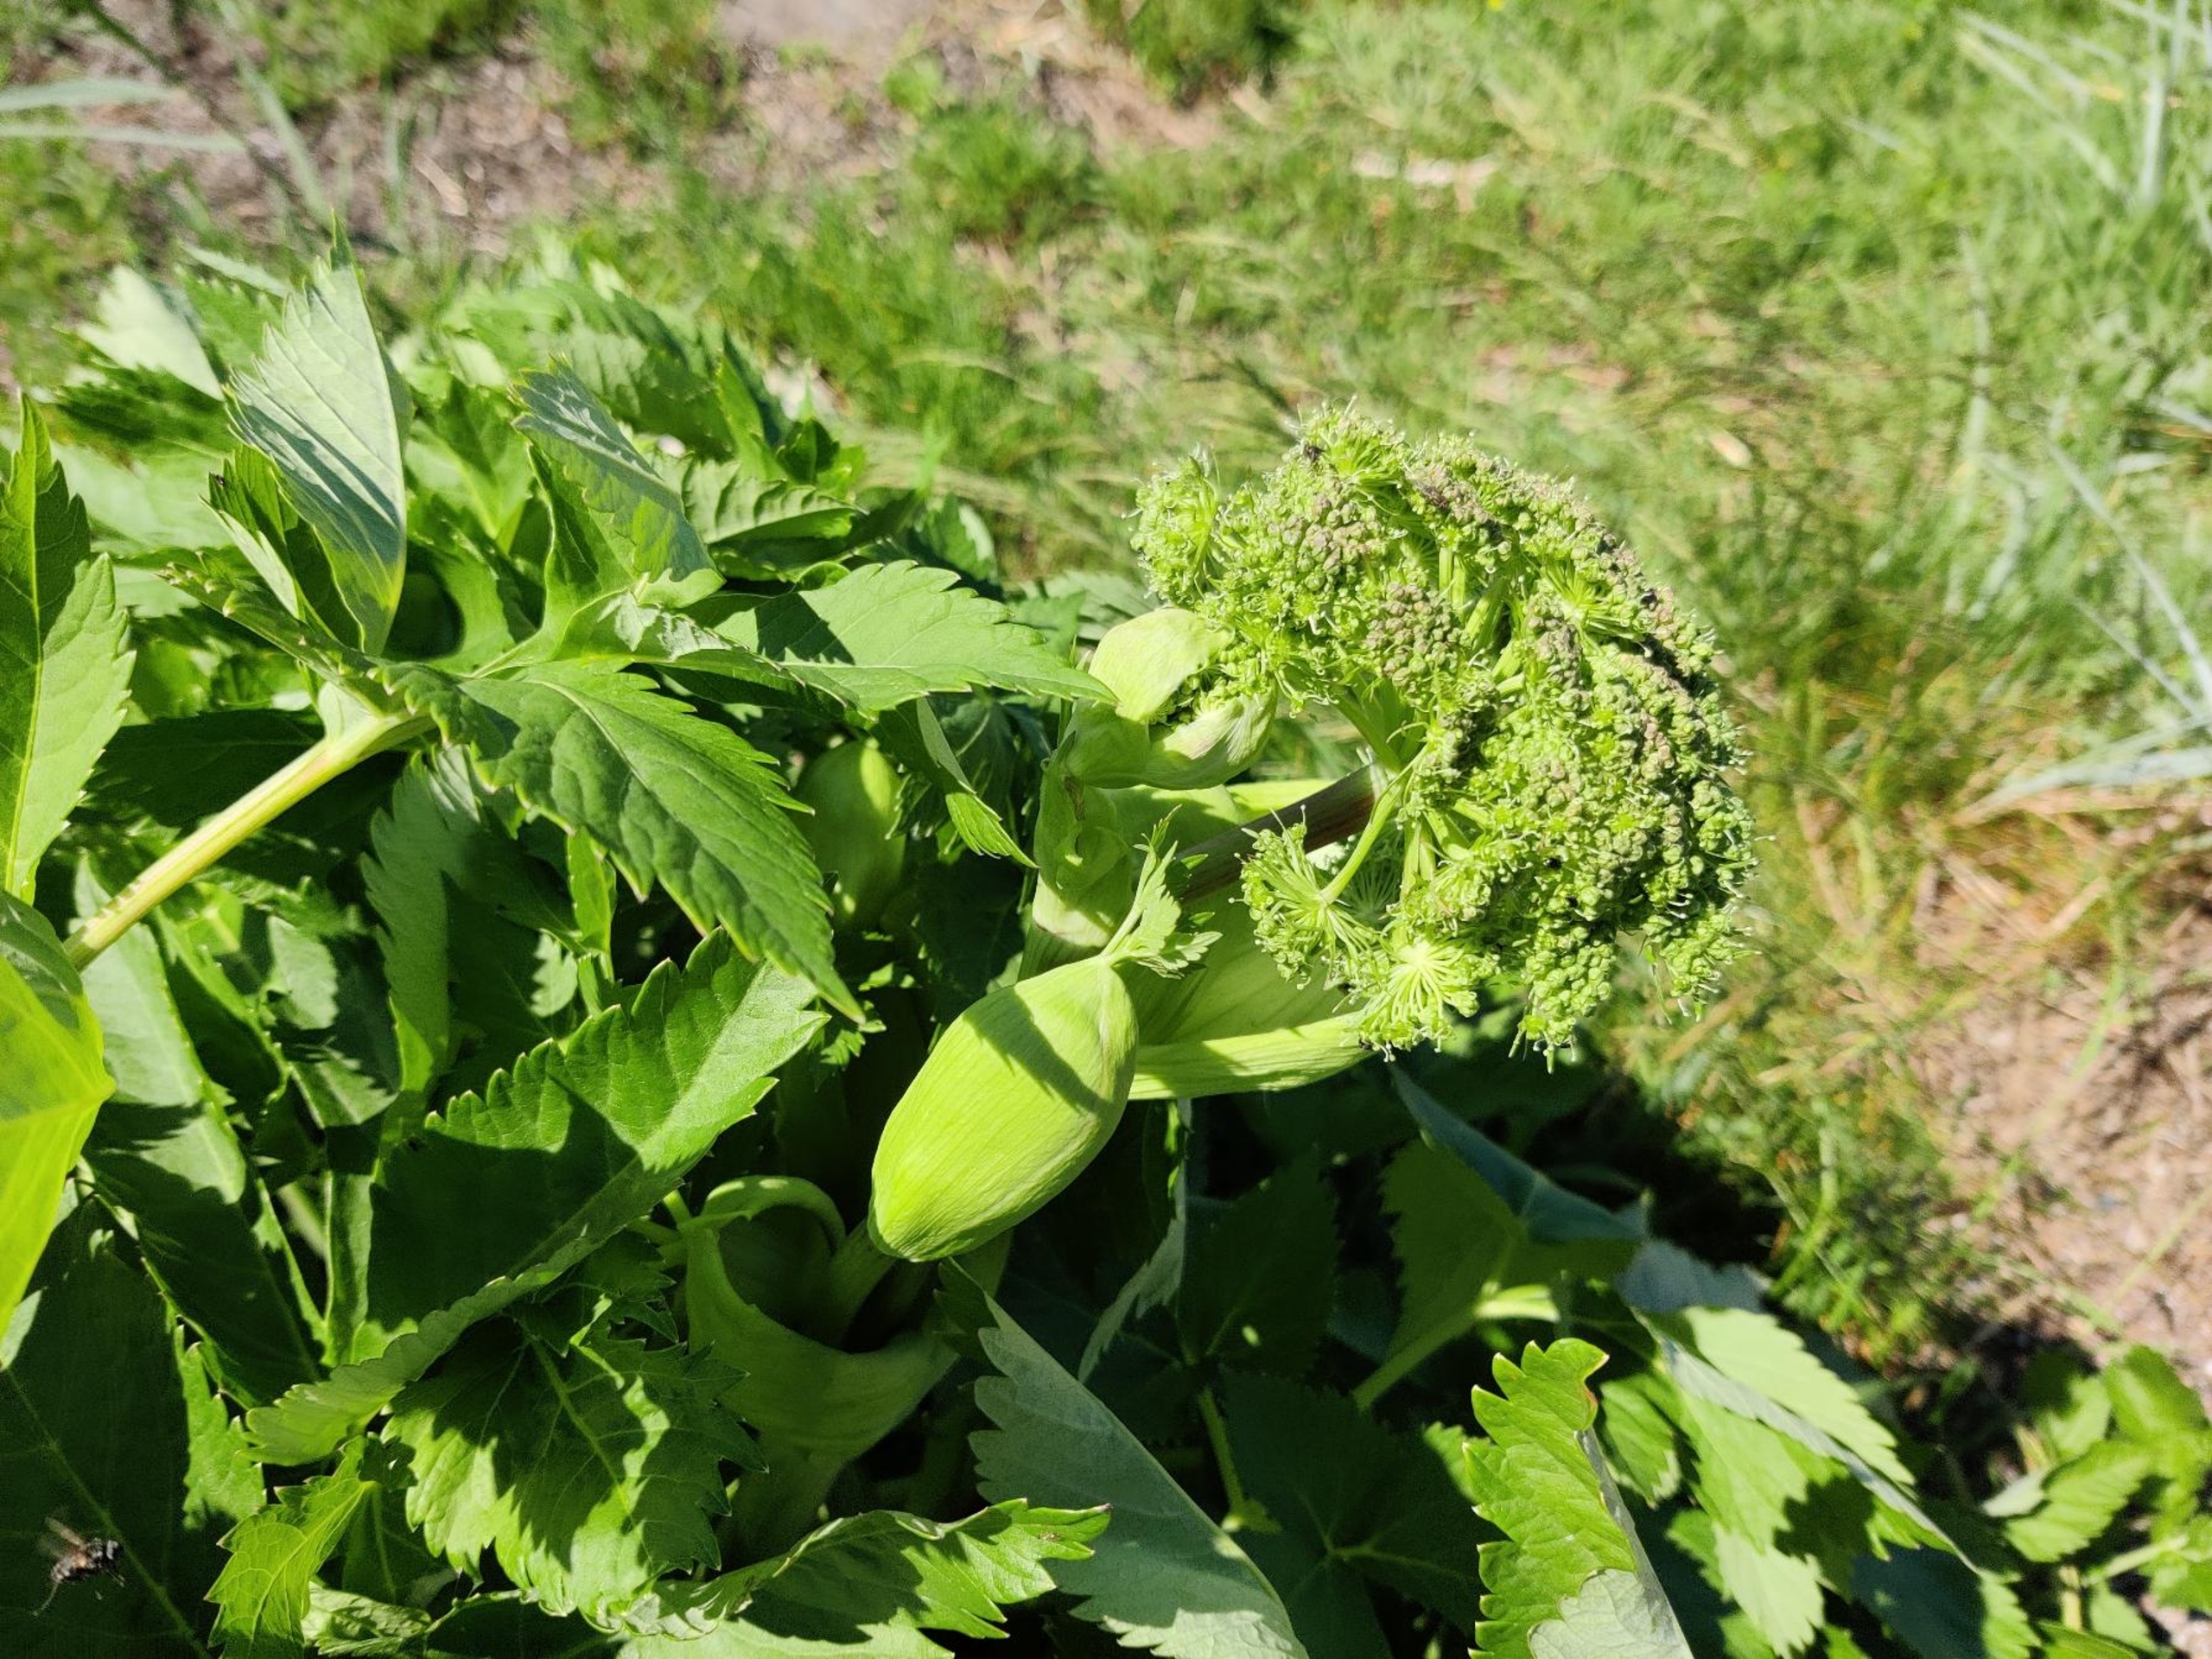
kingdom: Plantae
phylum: Tracheophyta
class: Magnoliopsida
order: Apiales
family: Apiaceae
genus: Angelica
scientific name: Angelica archangelica
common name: Kvan
